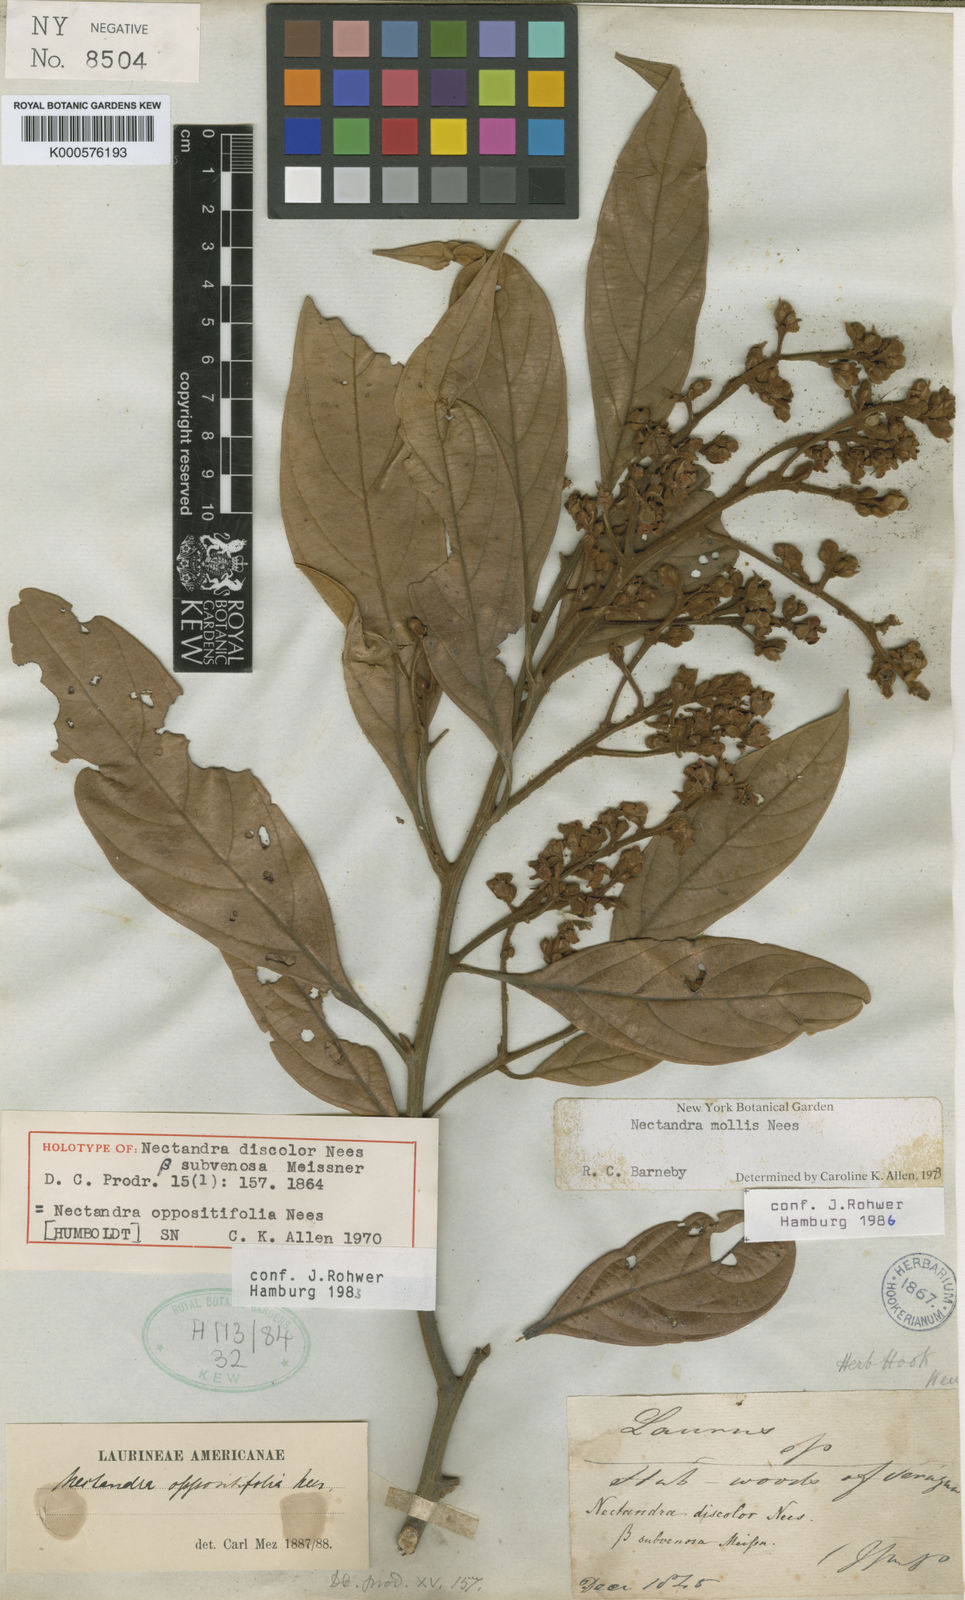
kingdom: Plantae
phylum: Tracheophyta
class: Magnoliopsida
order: Laurales
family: Lauraceae
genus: Nectandra
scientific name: Nectandra oppositifolia
